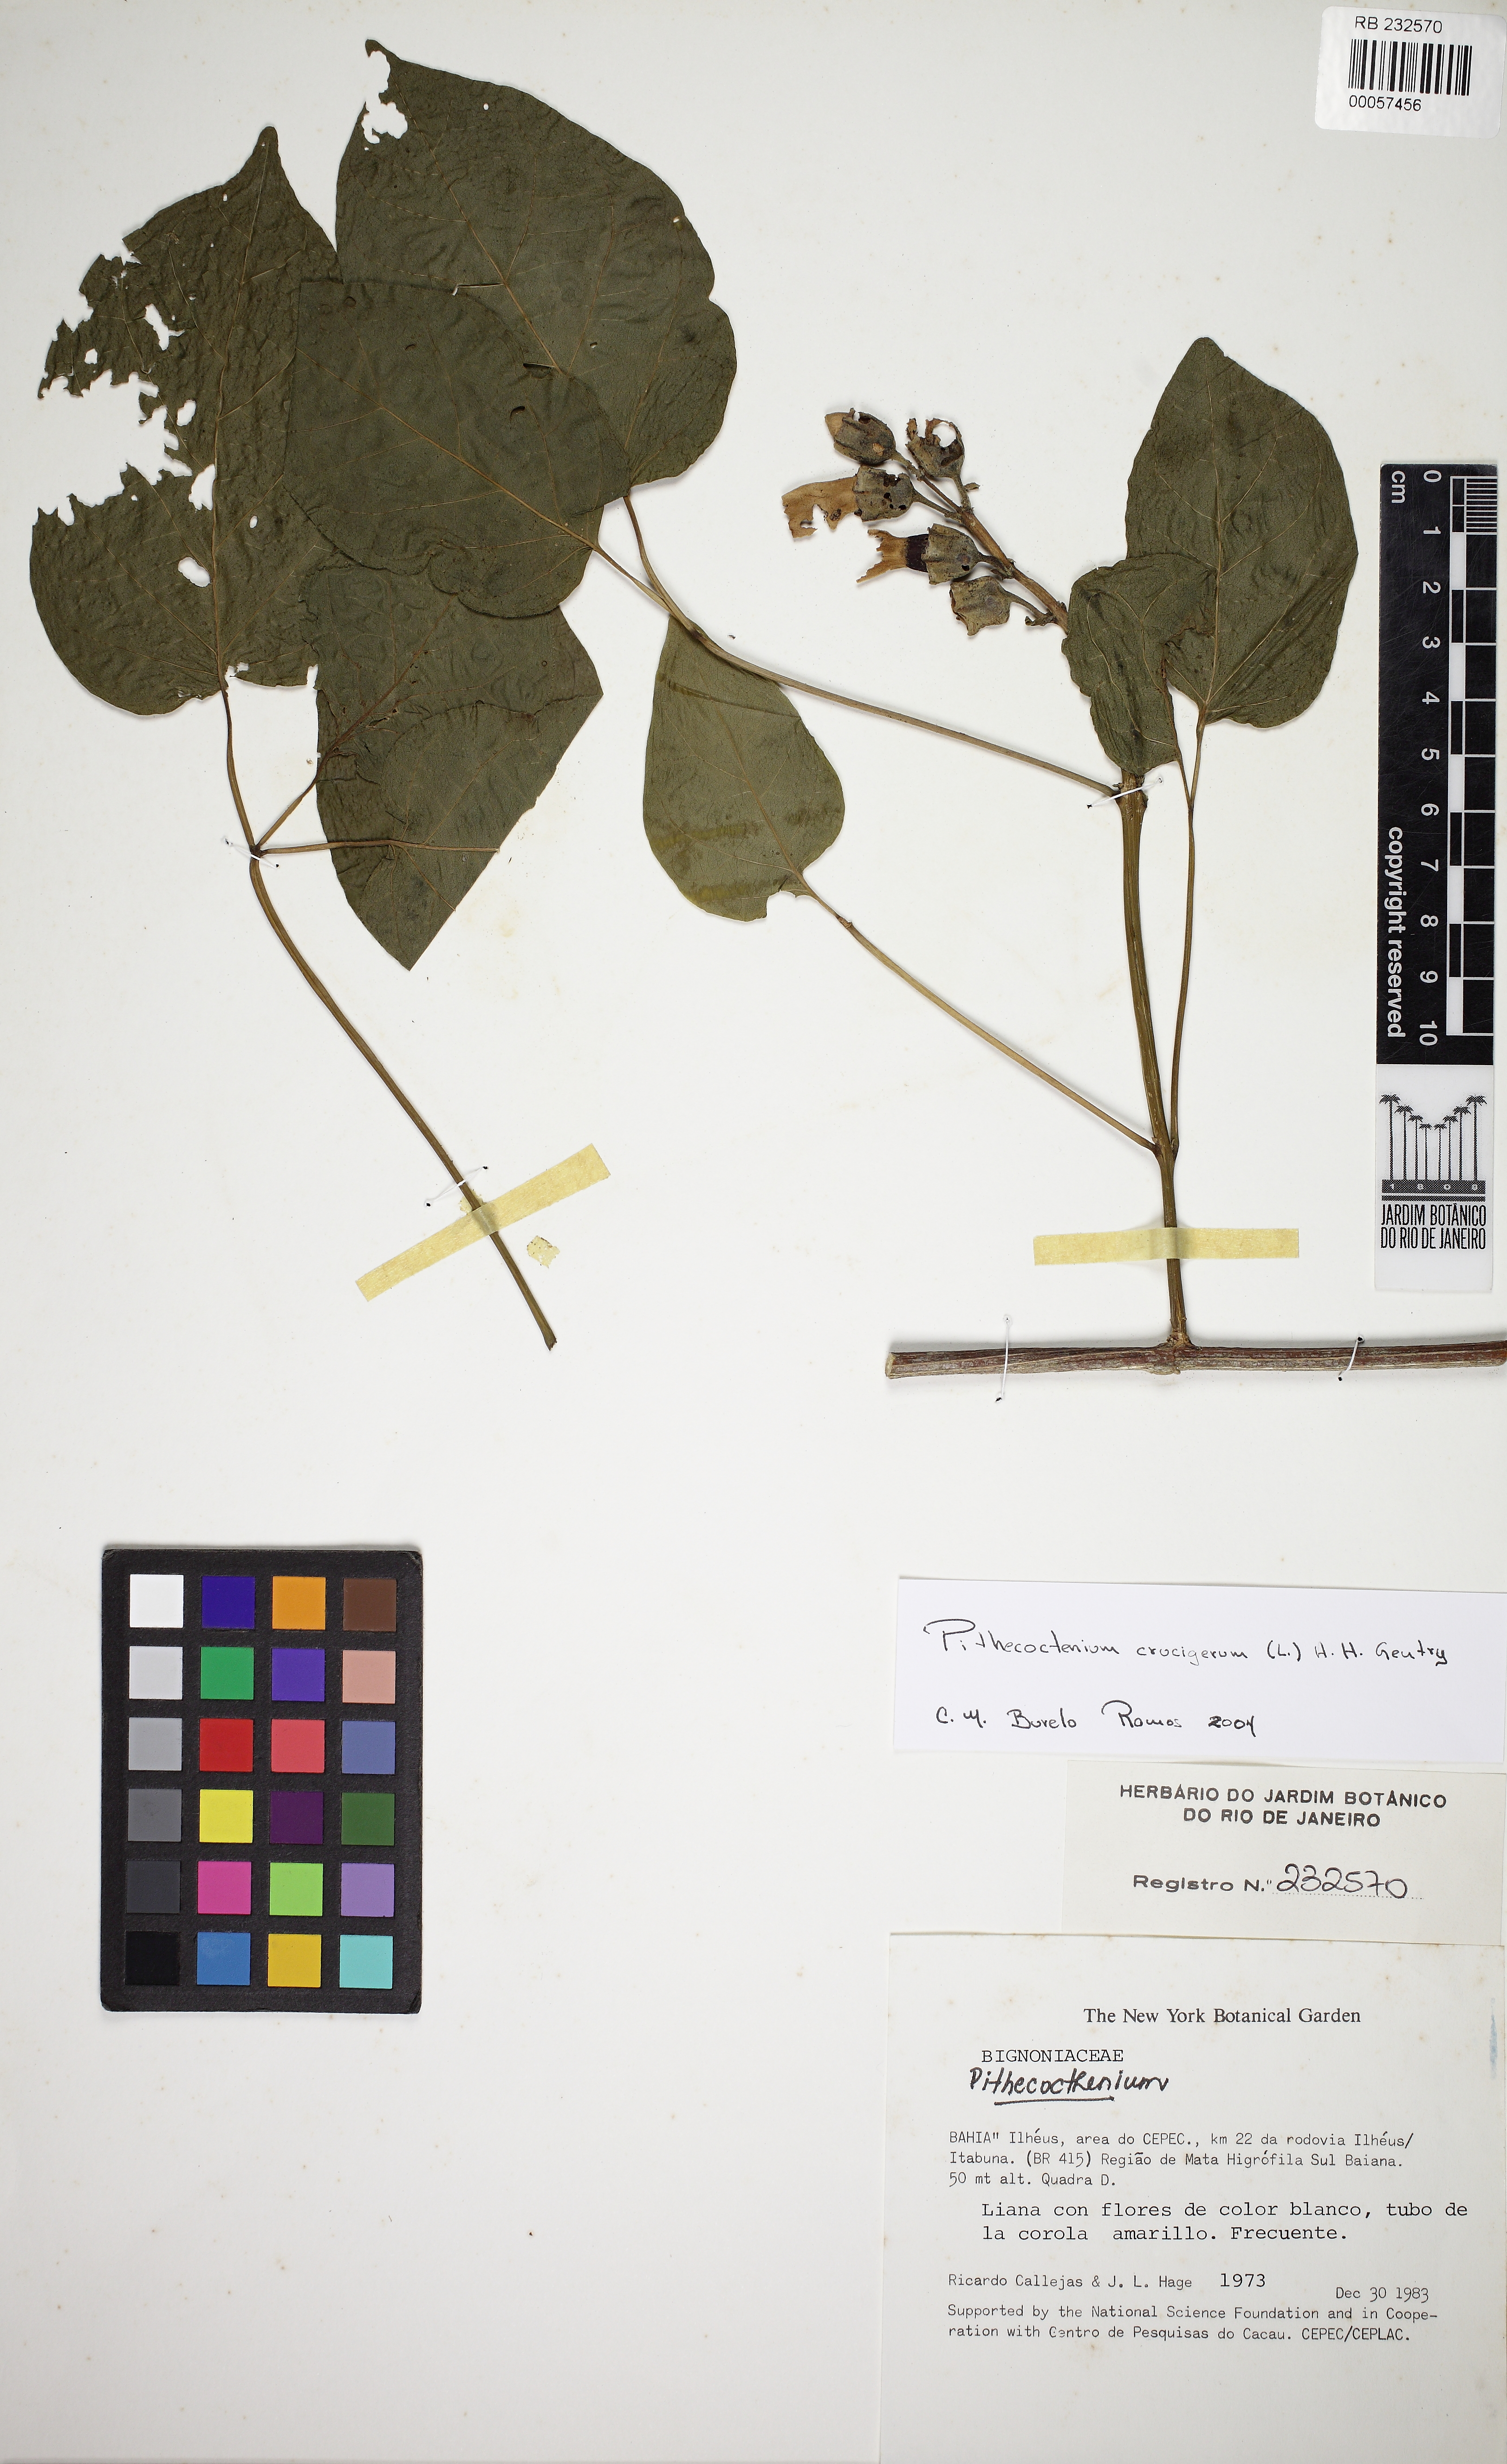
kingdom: Plantae
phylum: Tracheophyta
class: Magnoliopsida
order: Lamiales
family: Bignoniaceae
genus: Amphilophium
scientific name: Amphilophium crucigerum
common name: Monkey comb
